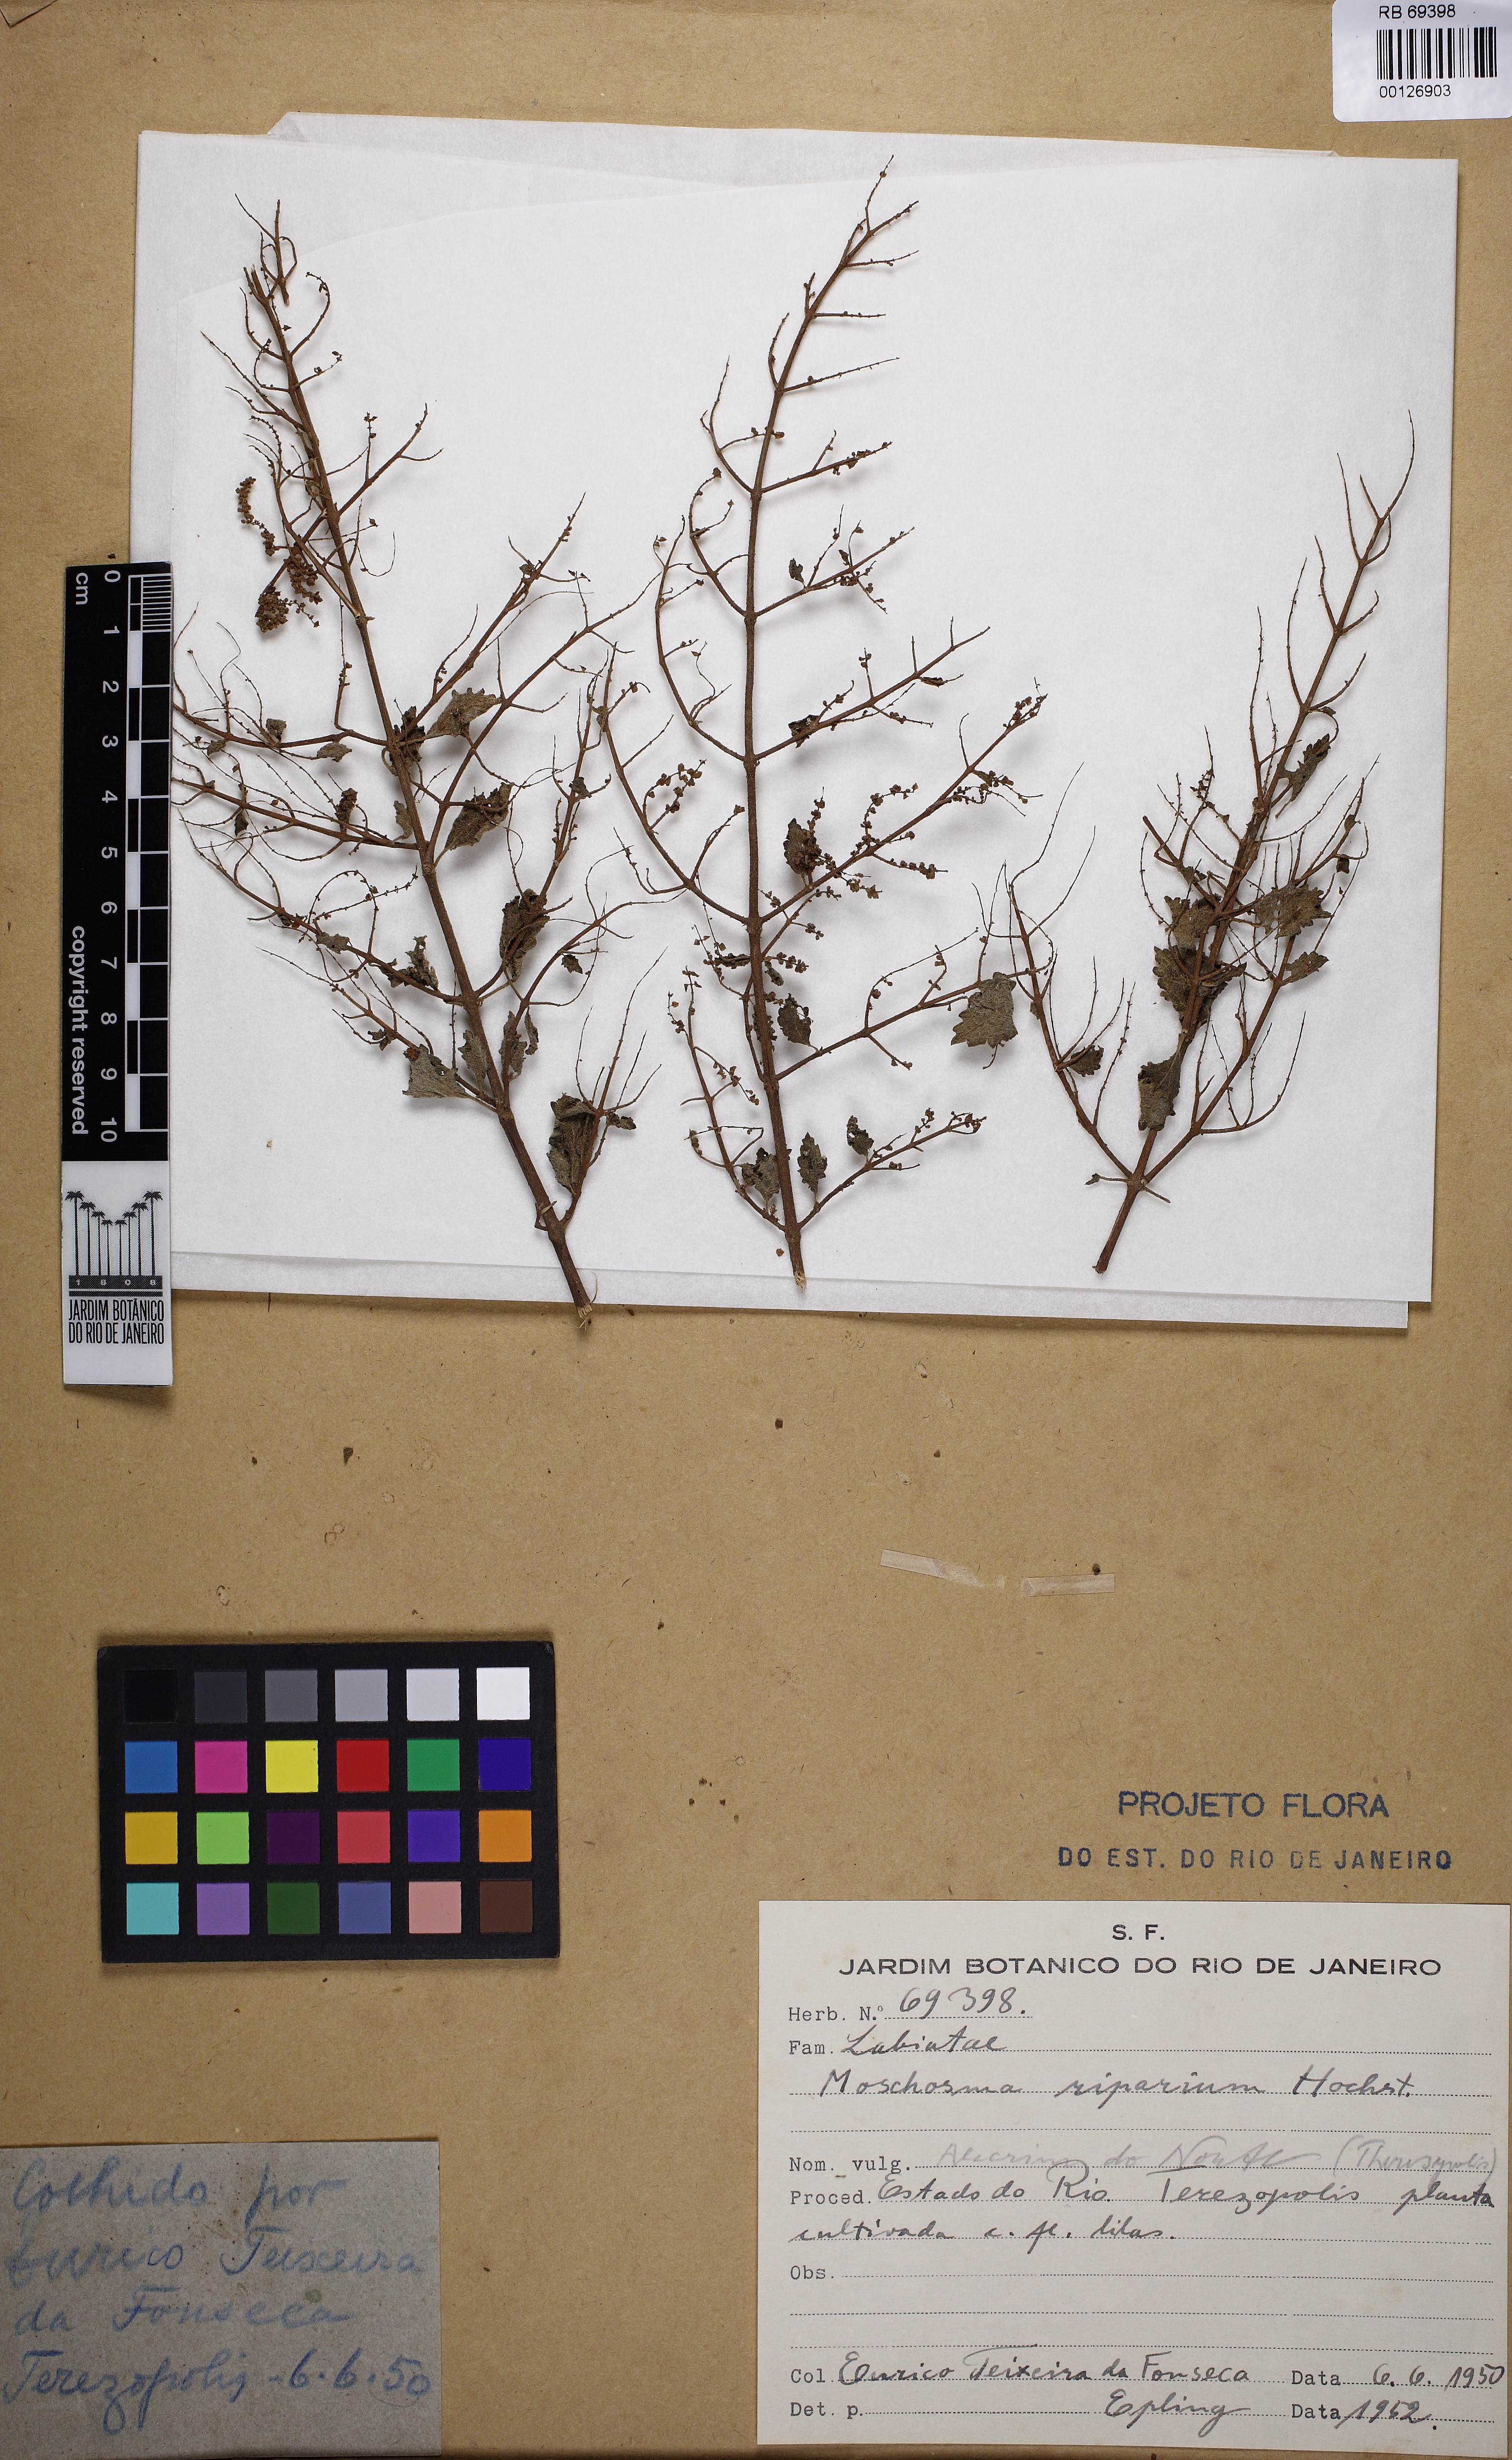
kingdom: Plantae
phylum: Tracheophyta
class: Magnoliopsida
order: Lamiales
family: Lamiaceae
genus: Tetradenia
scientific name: Tetradenia riparia
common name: Gingerbush
